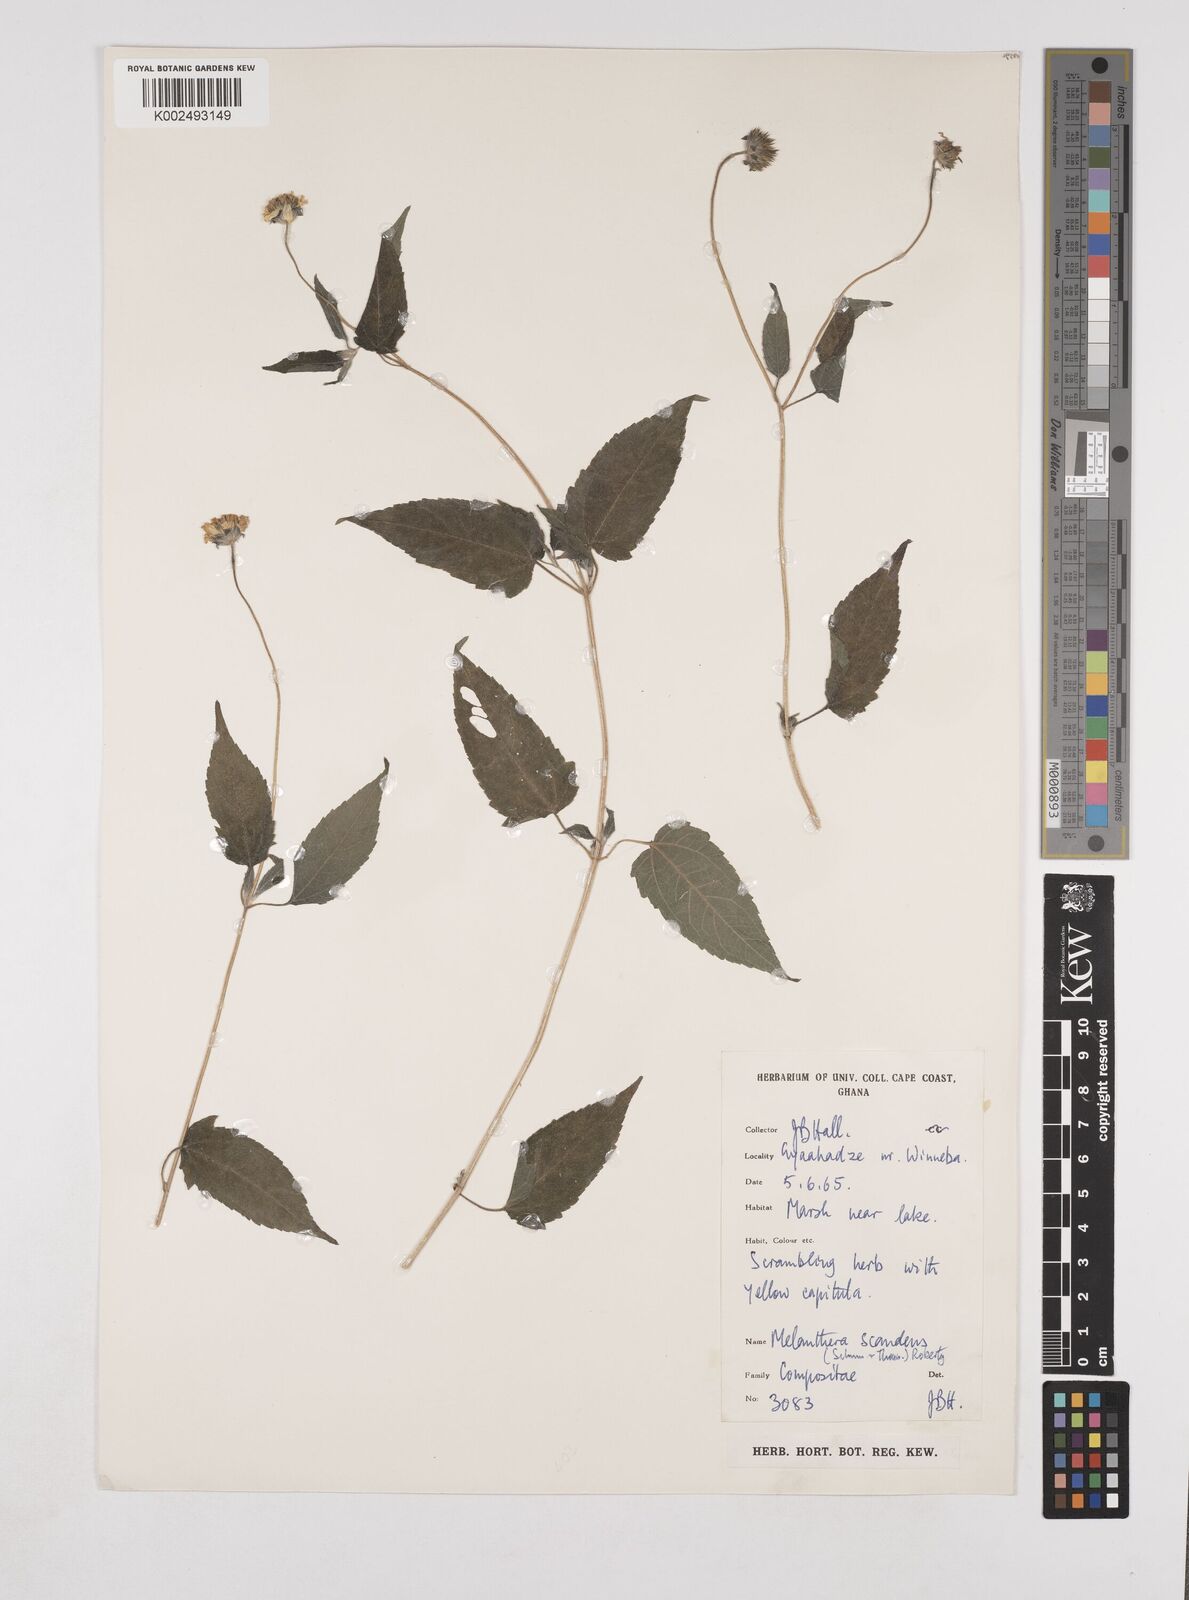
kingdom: Plantae
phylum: Tracheophyta
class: Magnoliopsida
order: Asterales
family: Asteraceae
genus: Lipotriche
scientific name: Lipotriche scandens
